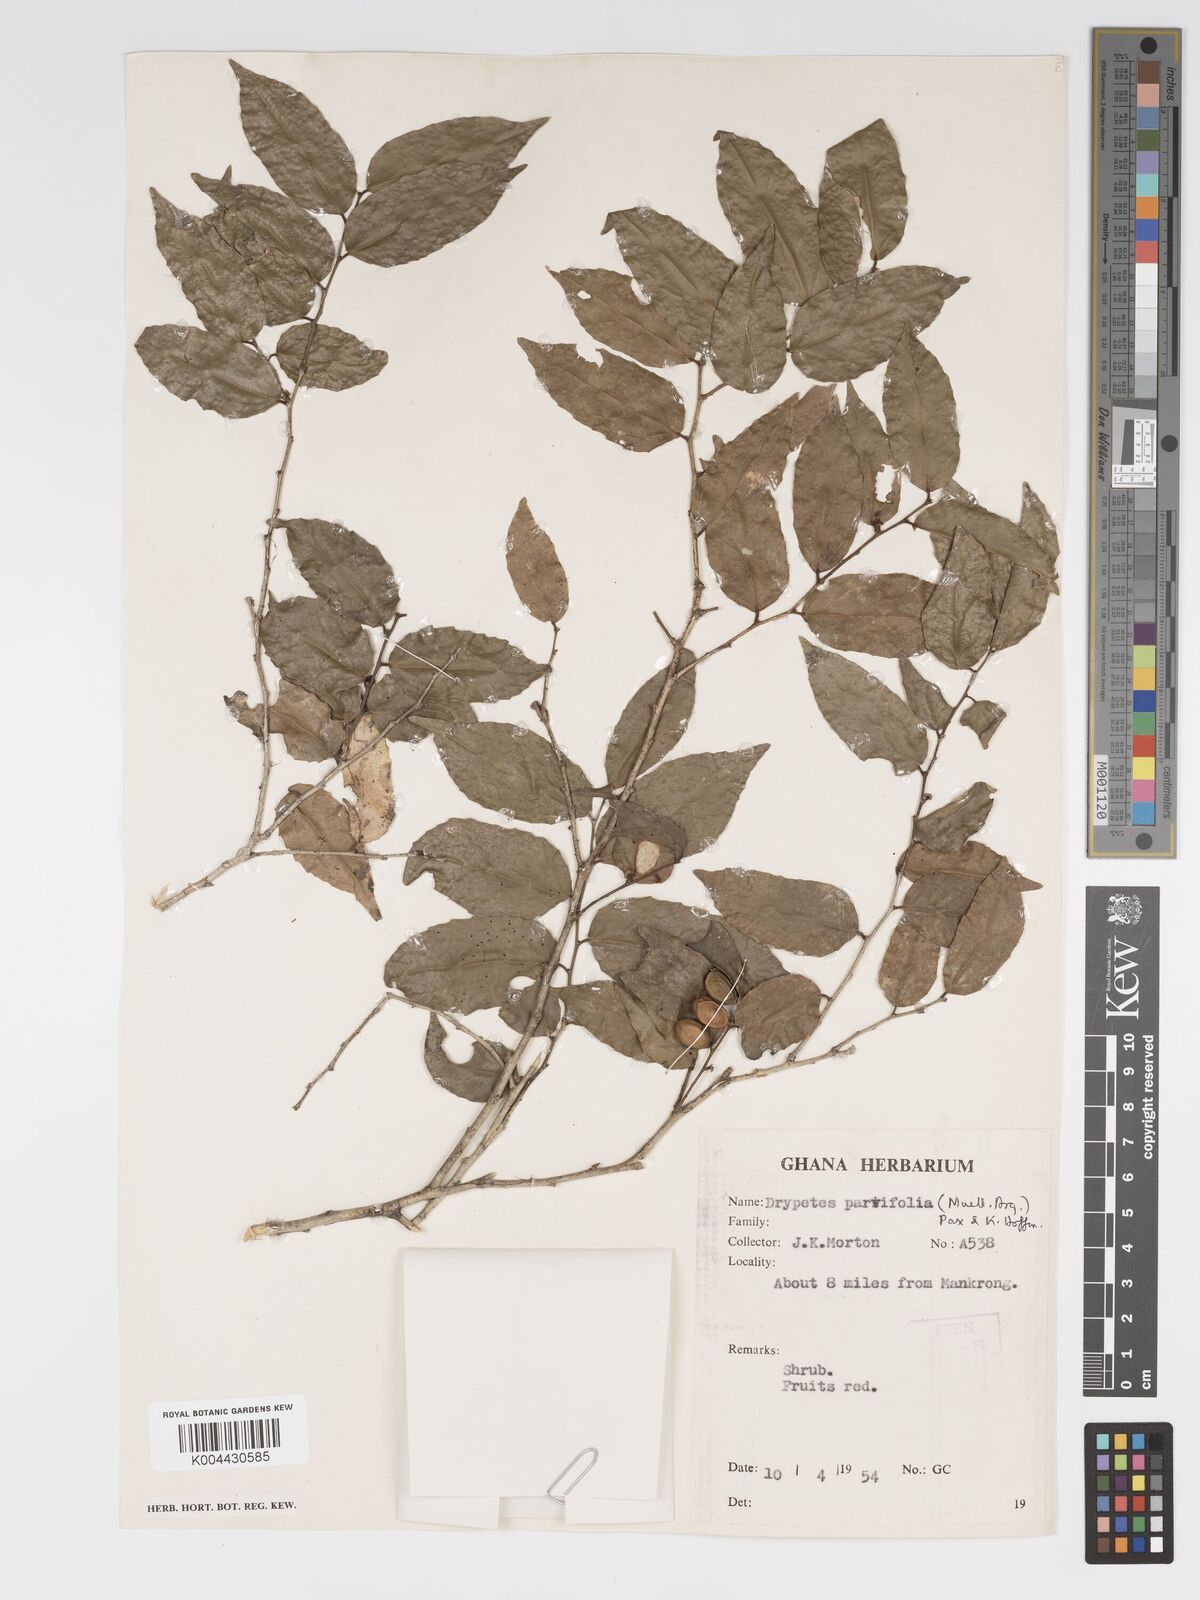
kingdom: Plantae
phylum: Tracheophyta
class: Magnoliopsida
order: Malpighiales
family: Putranjivaceae
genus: Drypetes
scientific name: Drypetes parvifolia
